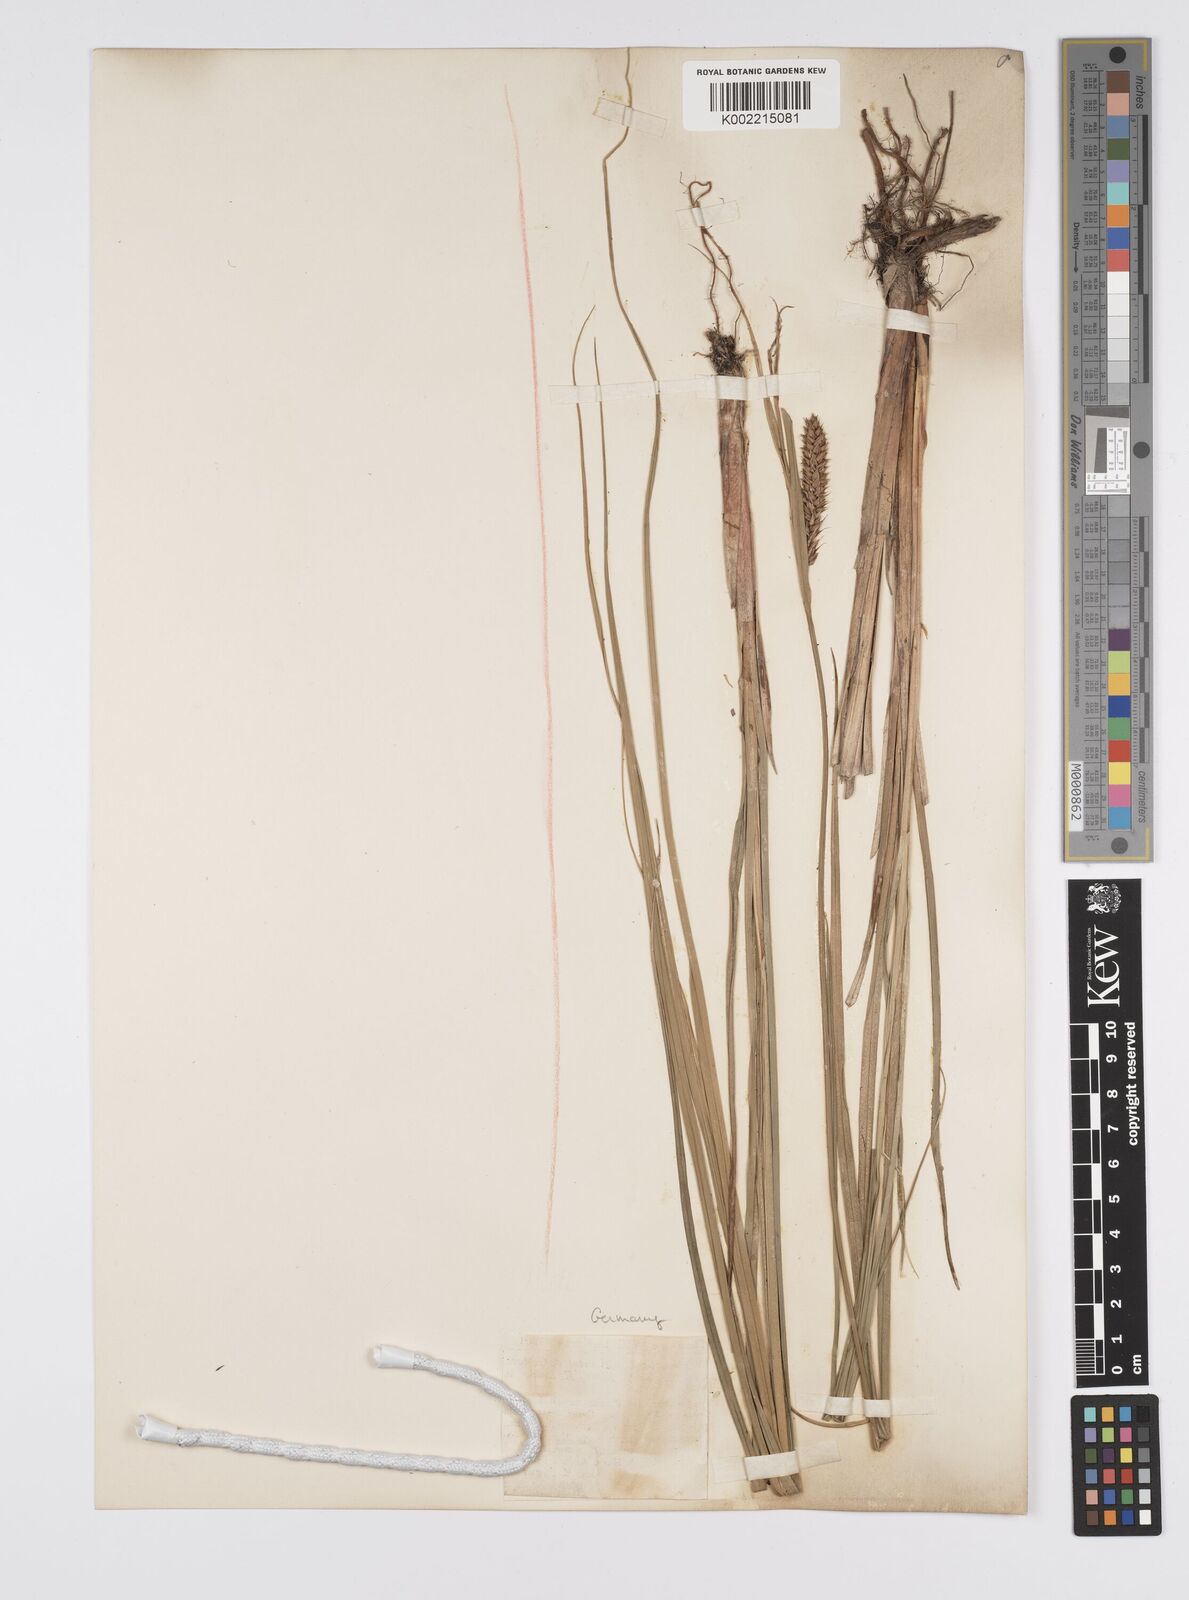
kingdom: Plantae
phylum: Tracheophyta
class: Liliopsida
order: Poales
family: Cyperaceae
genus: Carex
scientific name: Carex evoluta
